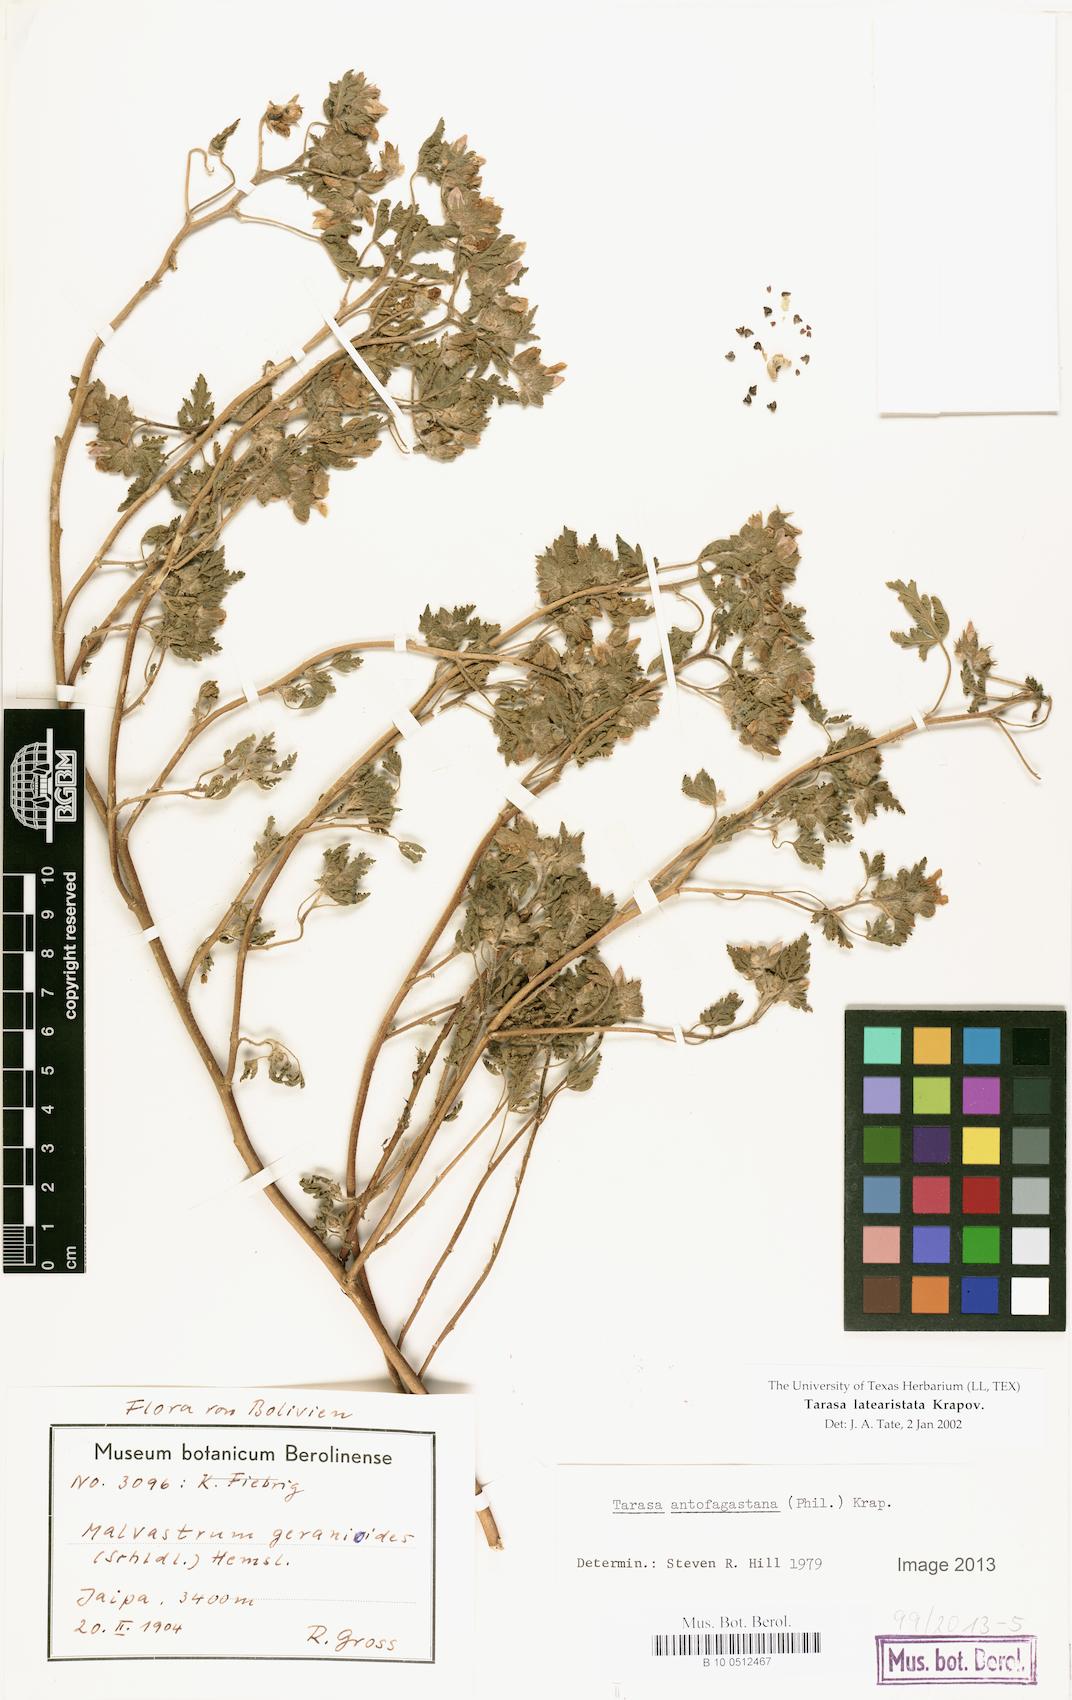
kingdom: Plantae
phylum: Tracheophyta
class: Magnoliopsida
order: Malvales
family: Malvaceae
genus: Tarasa
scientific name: Tarasa latearistata
